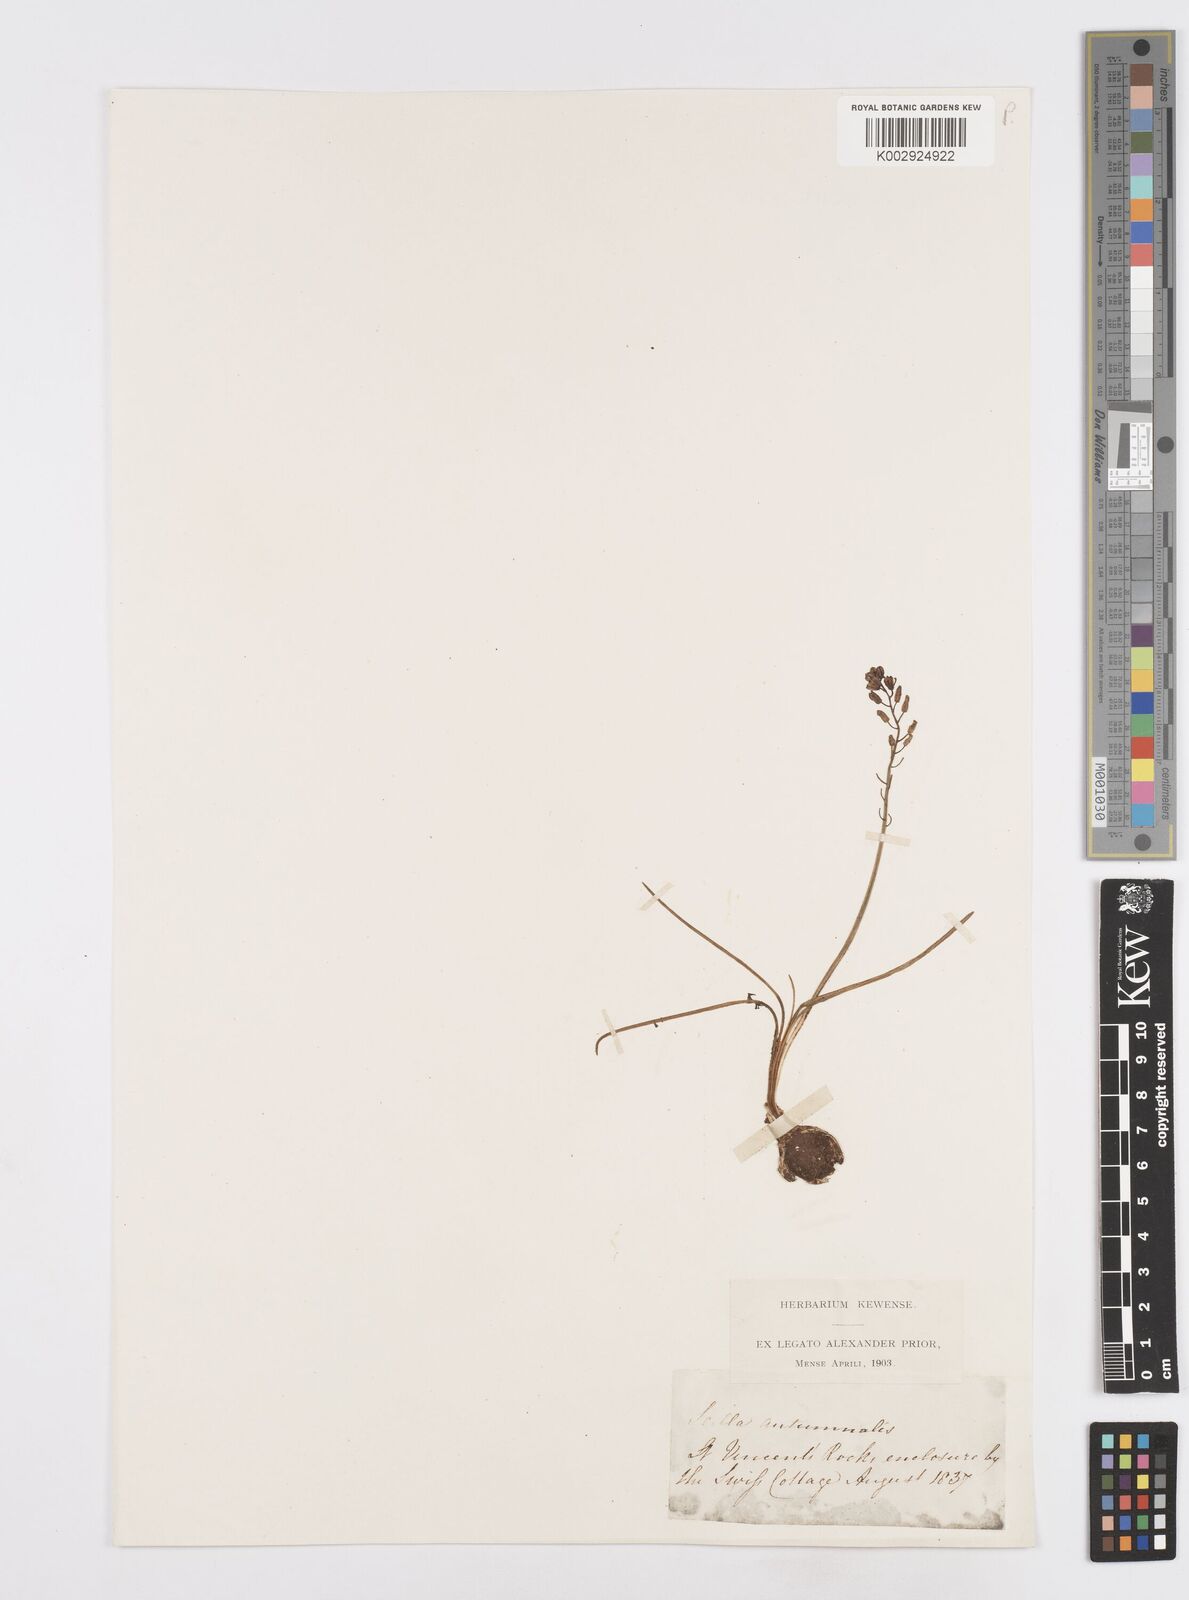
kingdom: Plantae
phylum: Tracheophyta
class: Liliopsida
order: Asparagales
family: Asparagaceae
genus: Scilla
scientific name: Scilla
